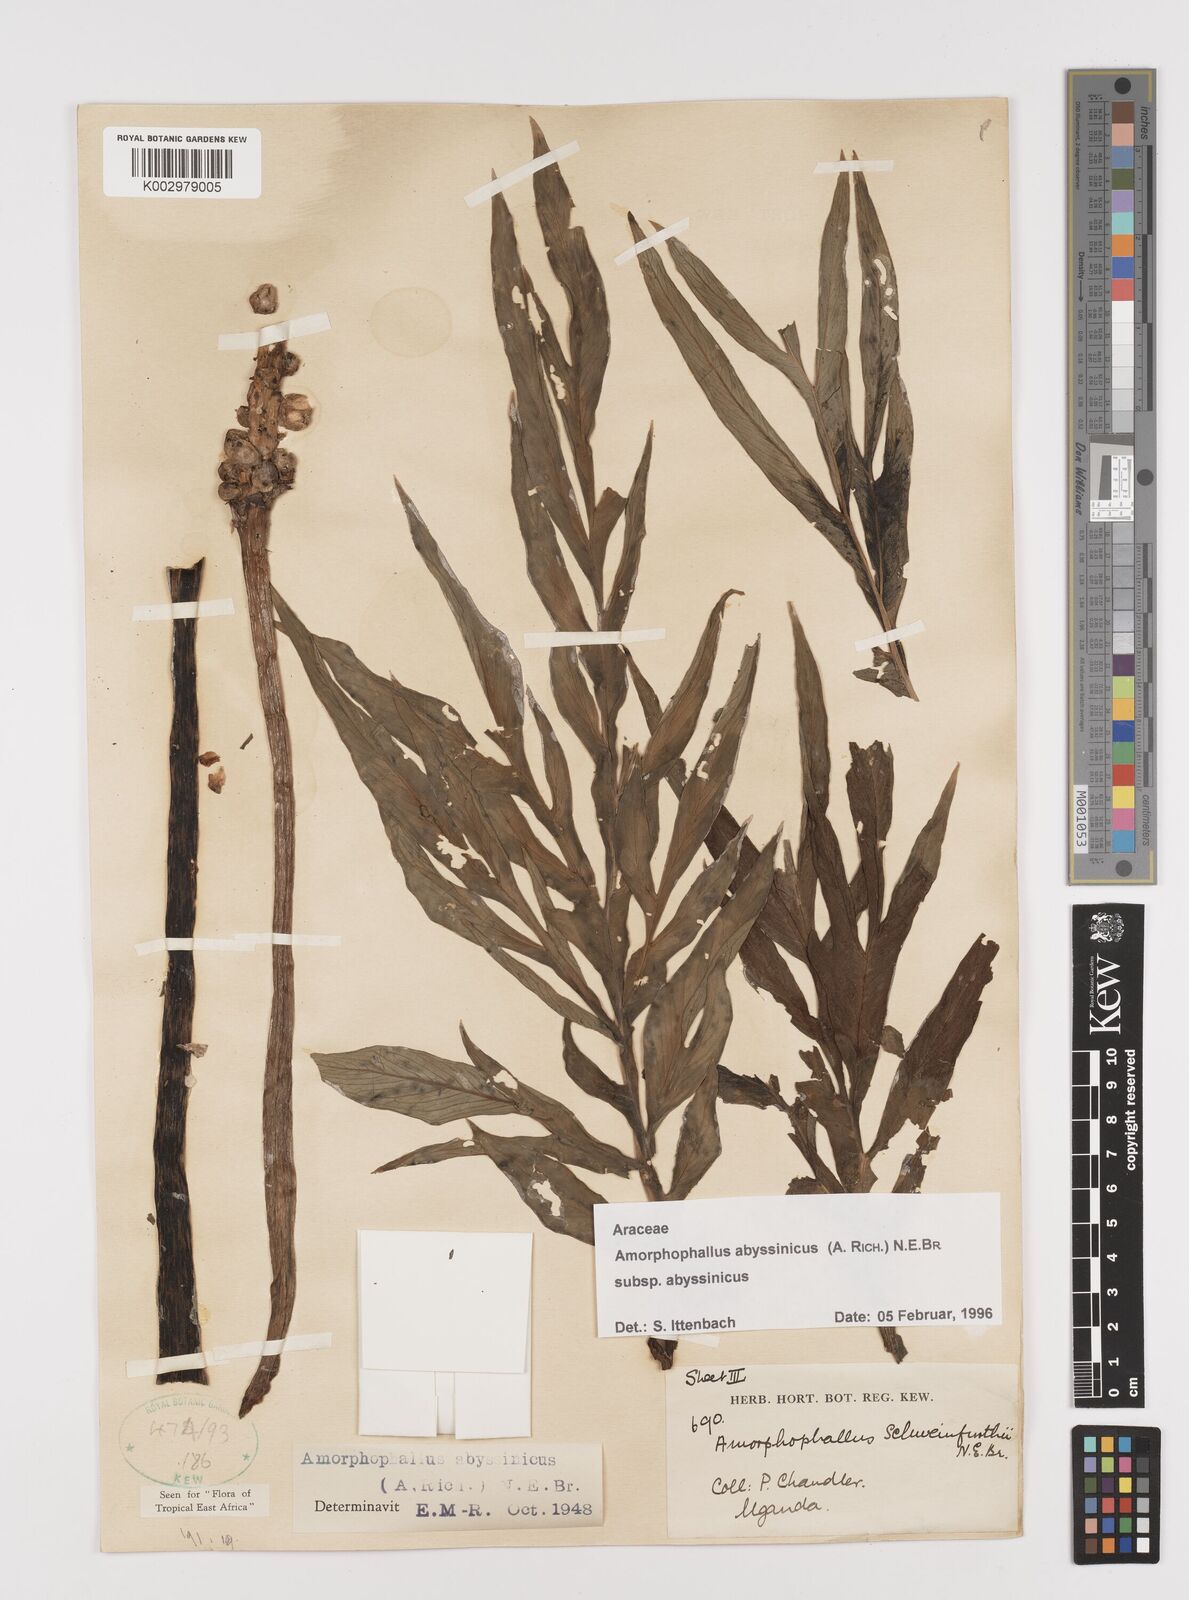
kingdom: Plantae
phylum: Tracheophyta
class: Liliopsida
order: Alismatales
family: Araceae
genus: Amorphophallus
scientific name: Amorphophallus abyssinicus
